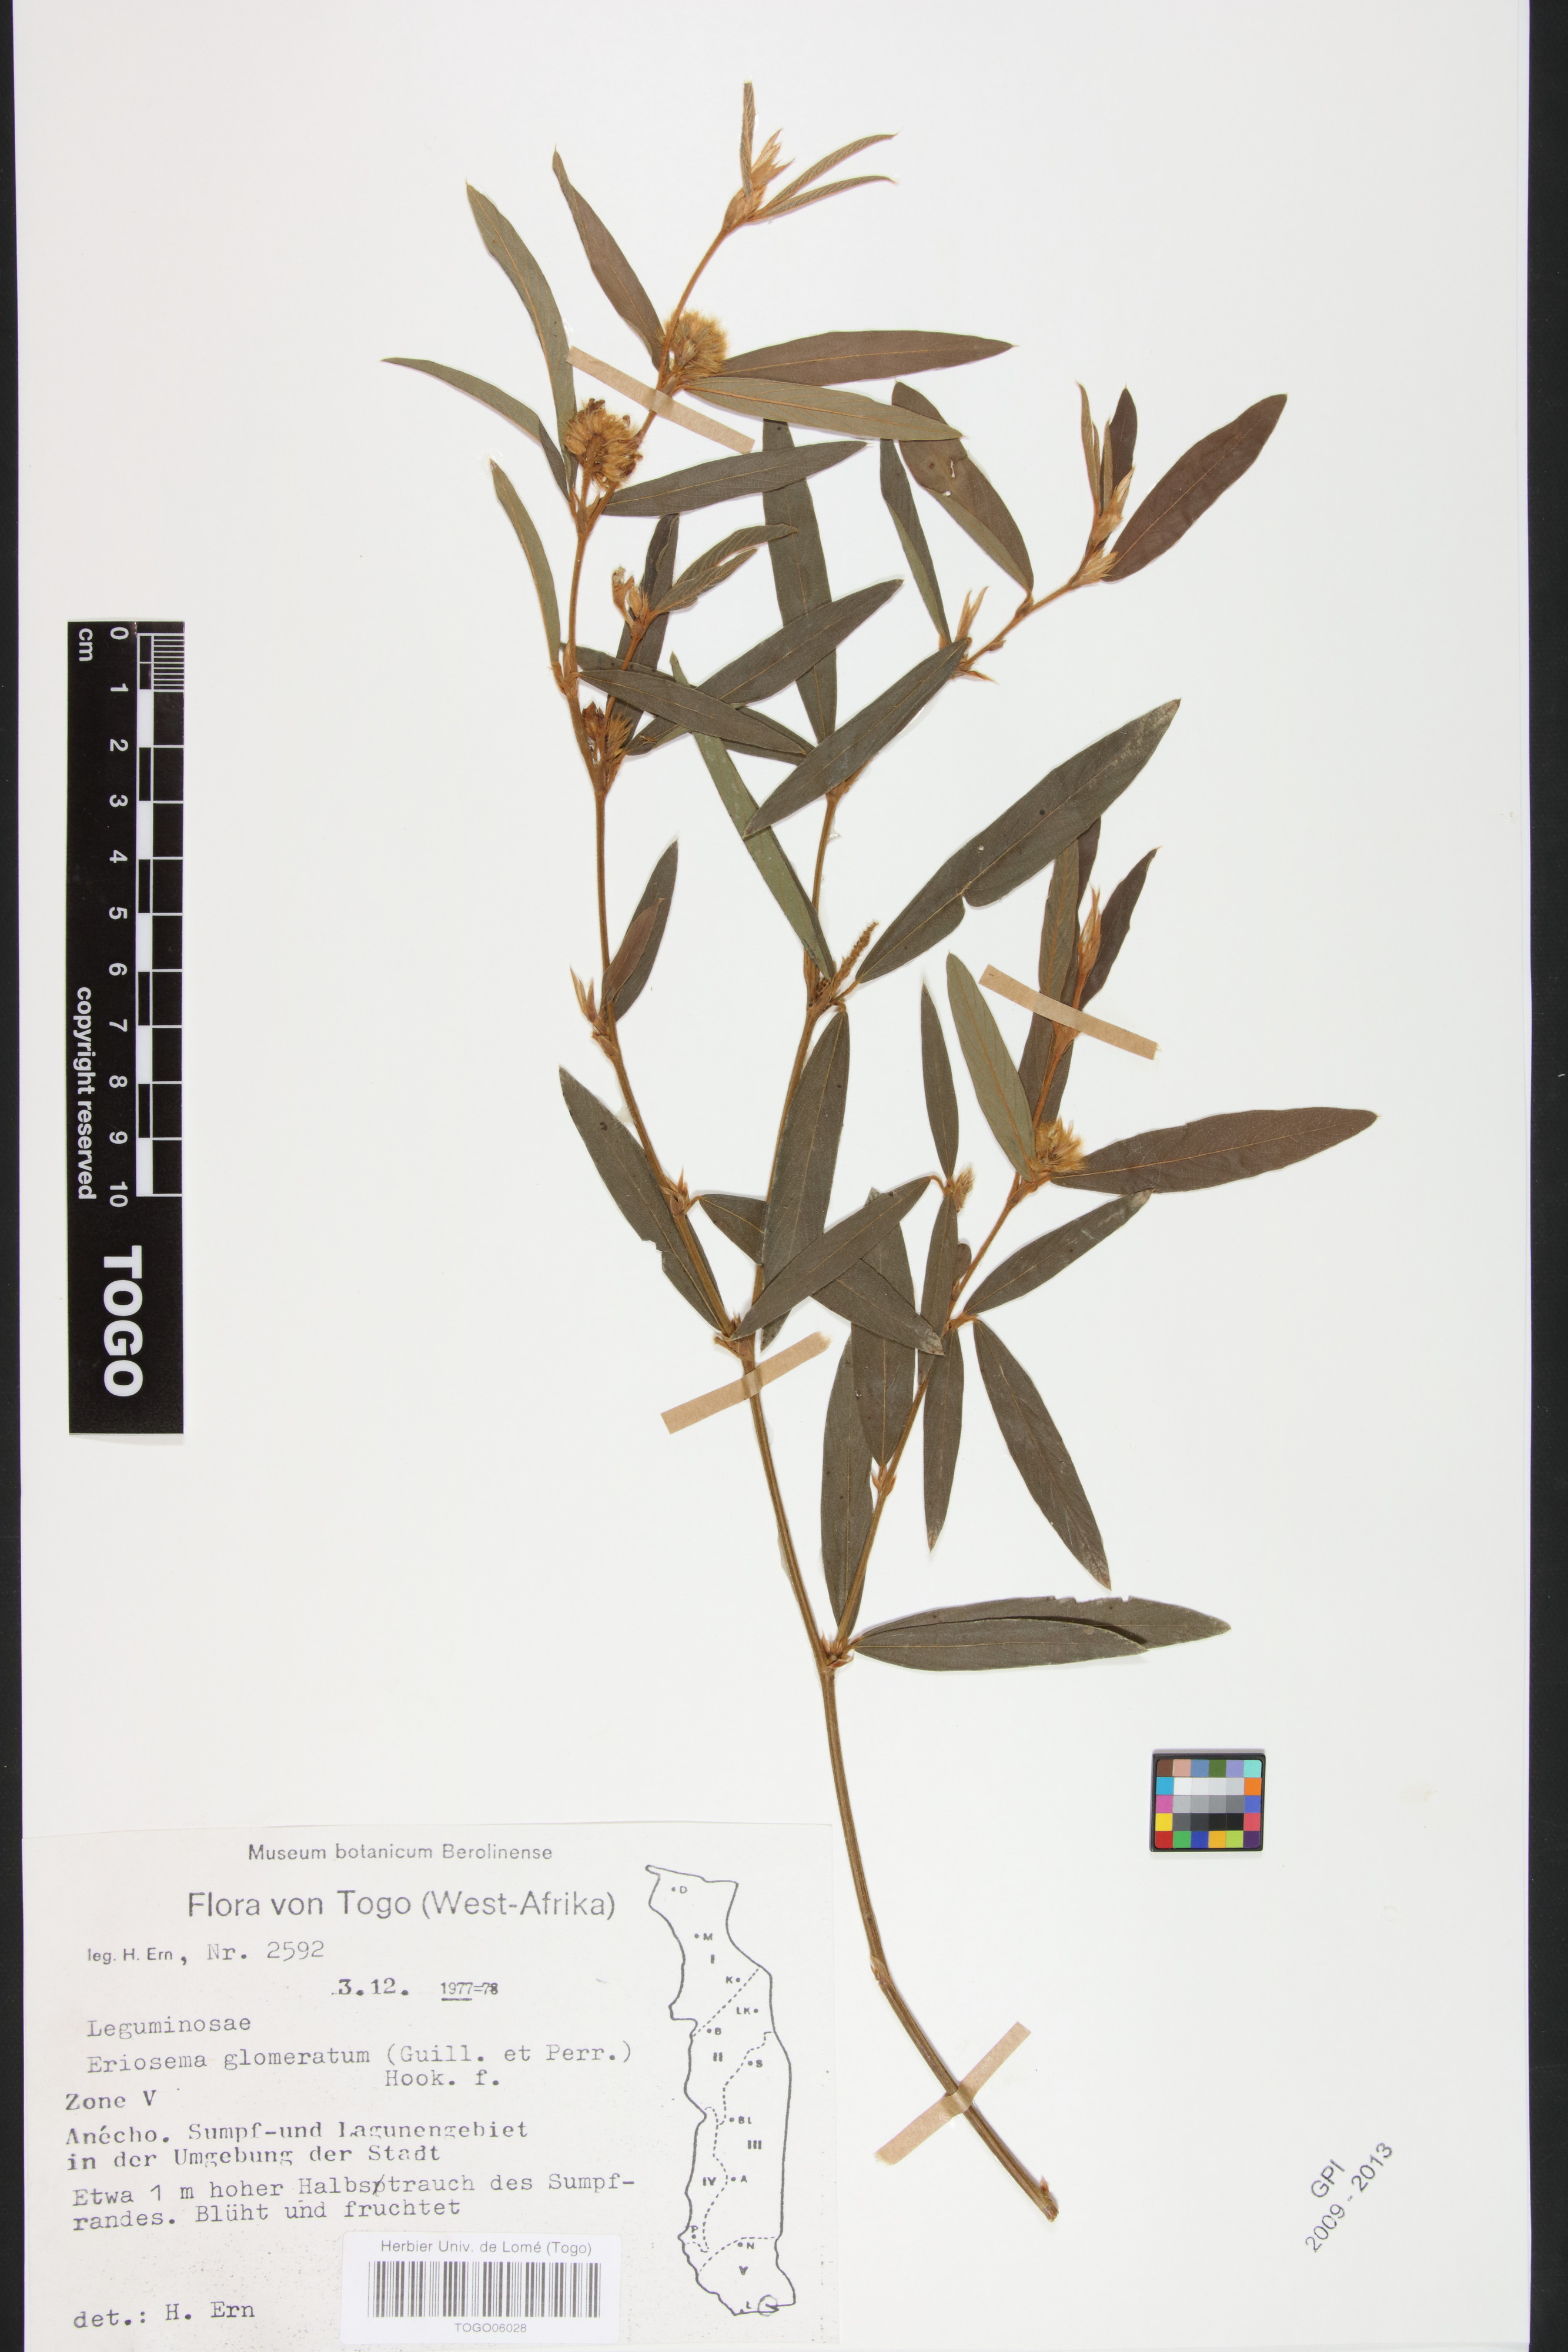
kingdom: Plantae
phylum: Tracheophyta
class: Magnoliopsida
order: Fabales
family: Fabaceae
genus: Eriosema
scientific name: Eriosema glomeratum
